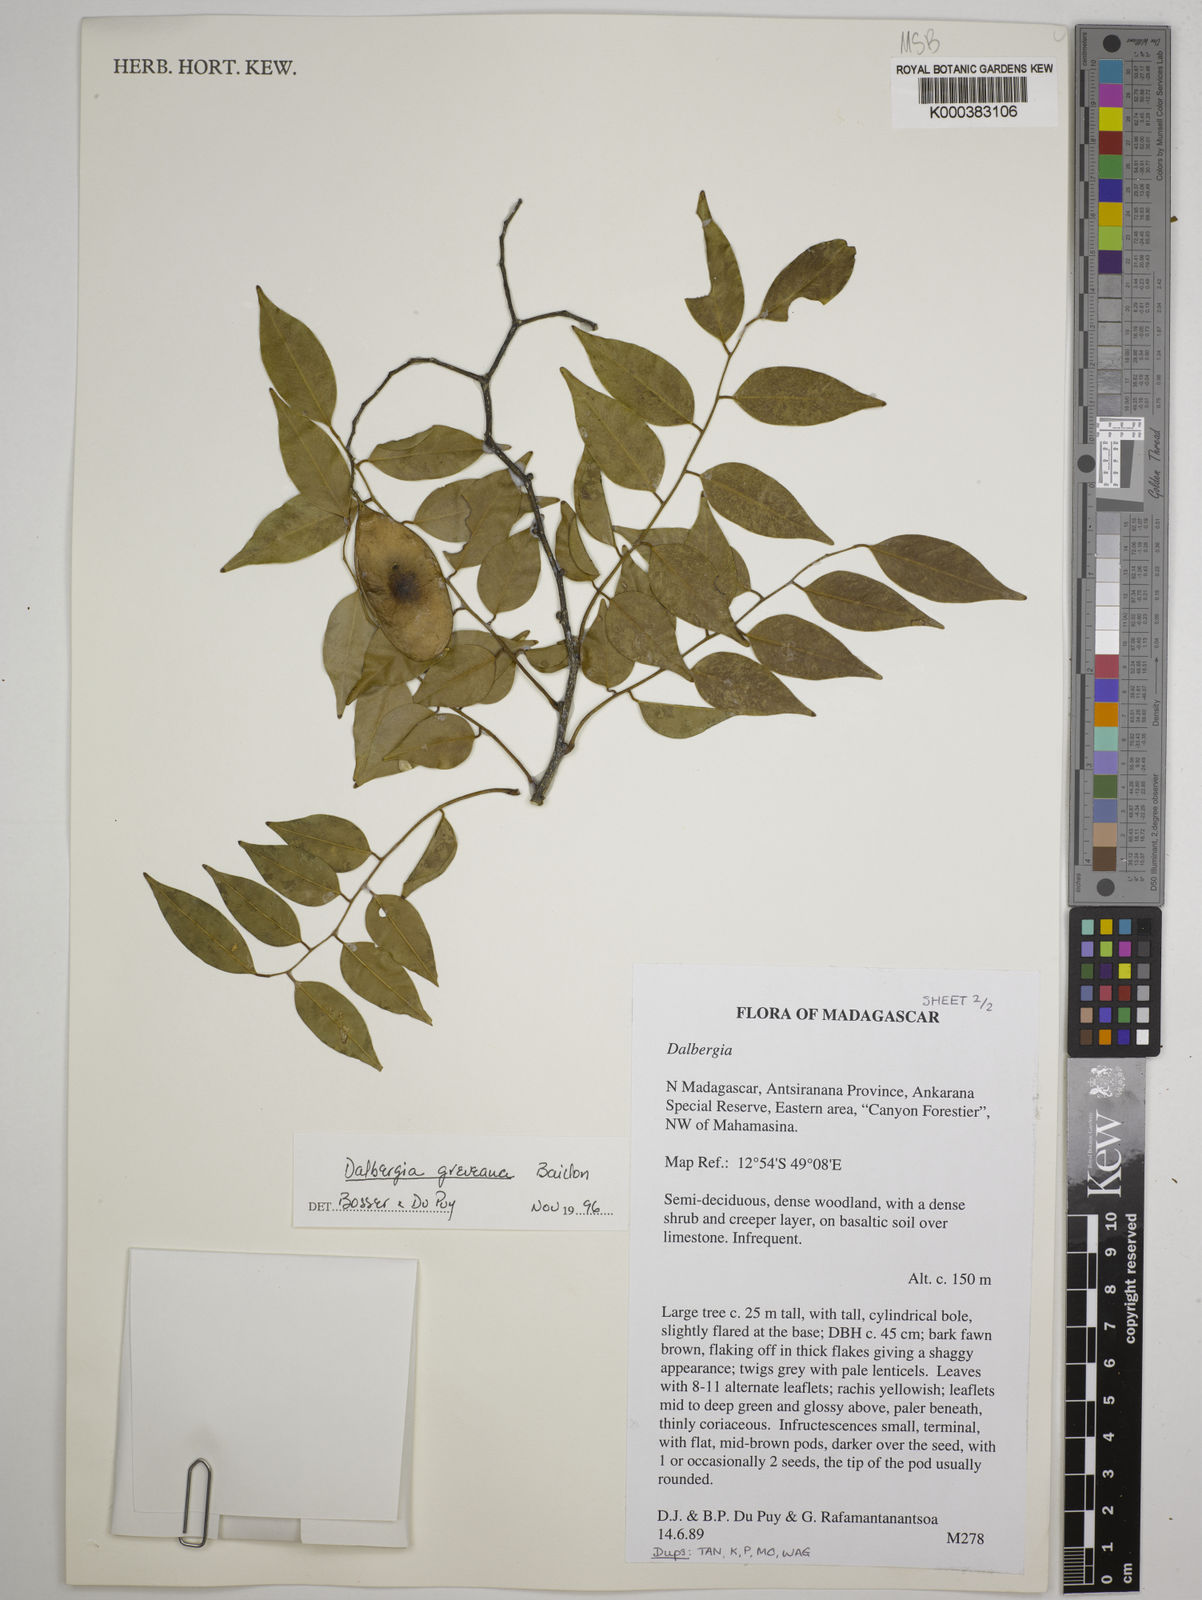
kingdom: Plantae
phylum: Tracheophyta
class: Magnoliopsida
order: Fabales
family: Fabaceae
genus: Dalbergia
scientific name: Dalbergia greveana
